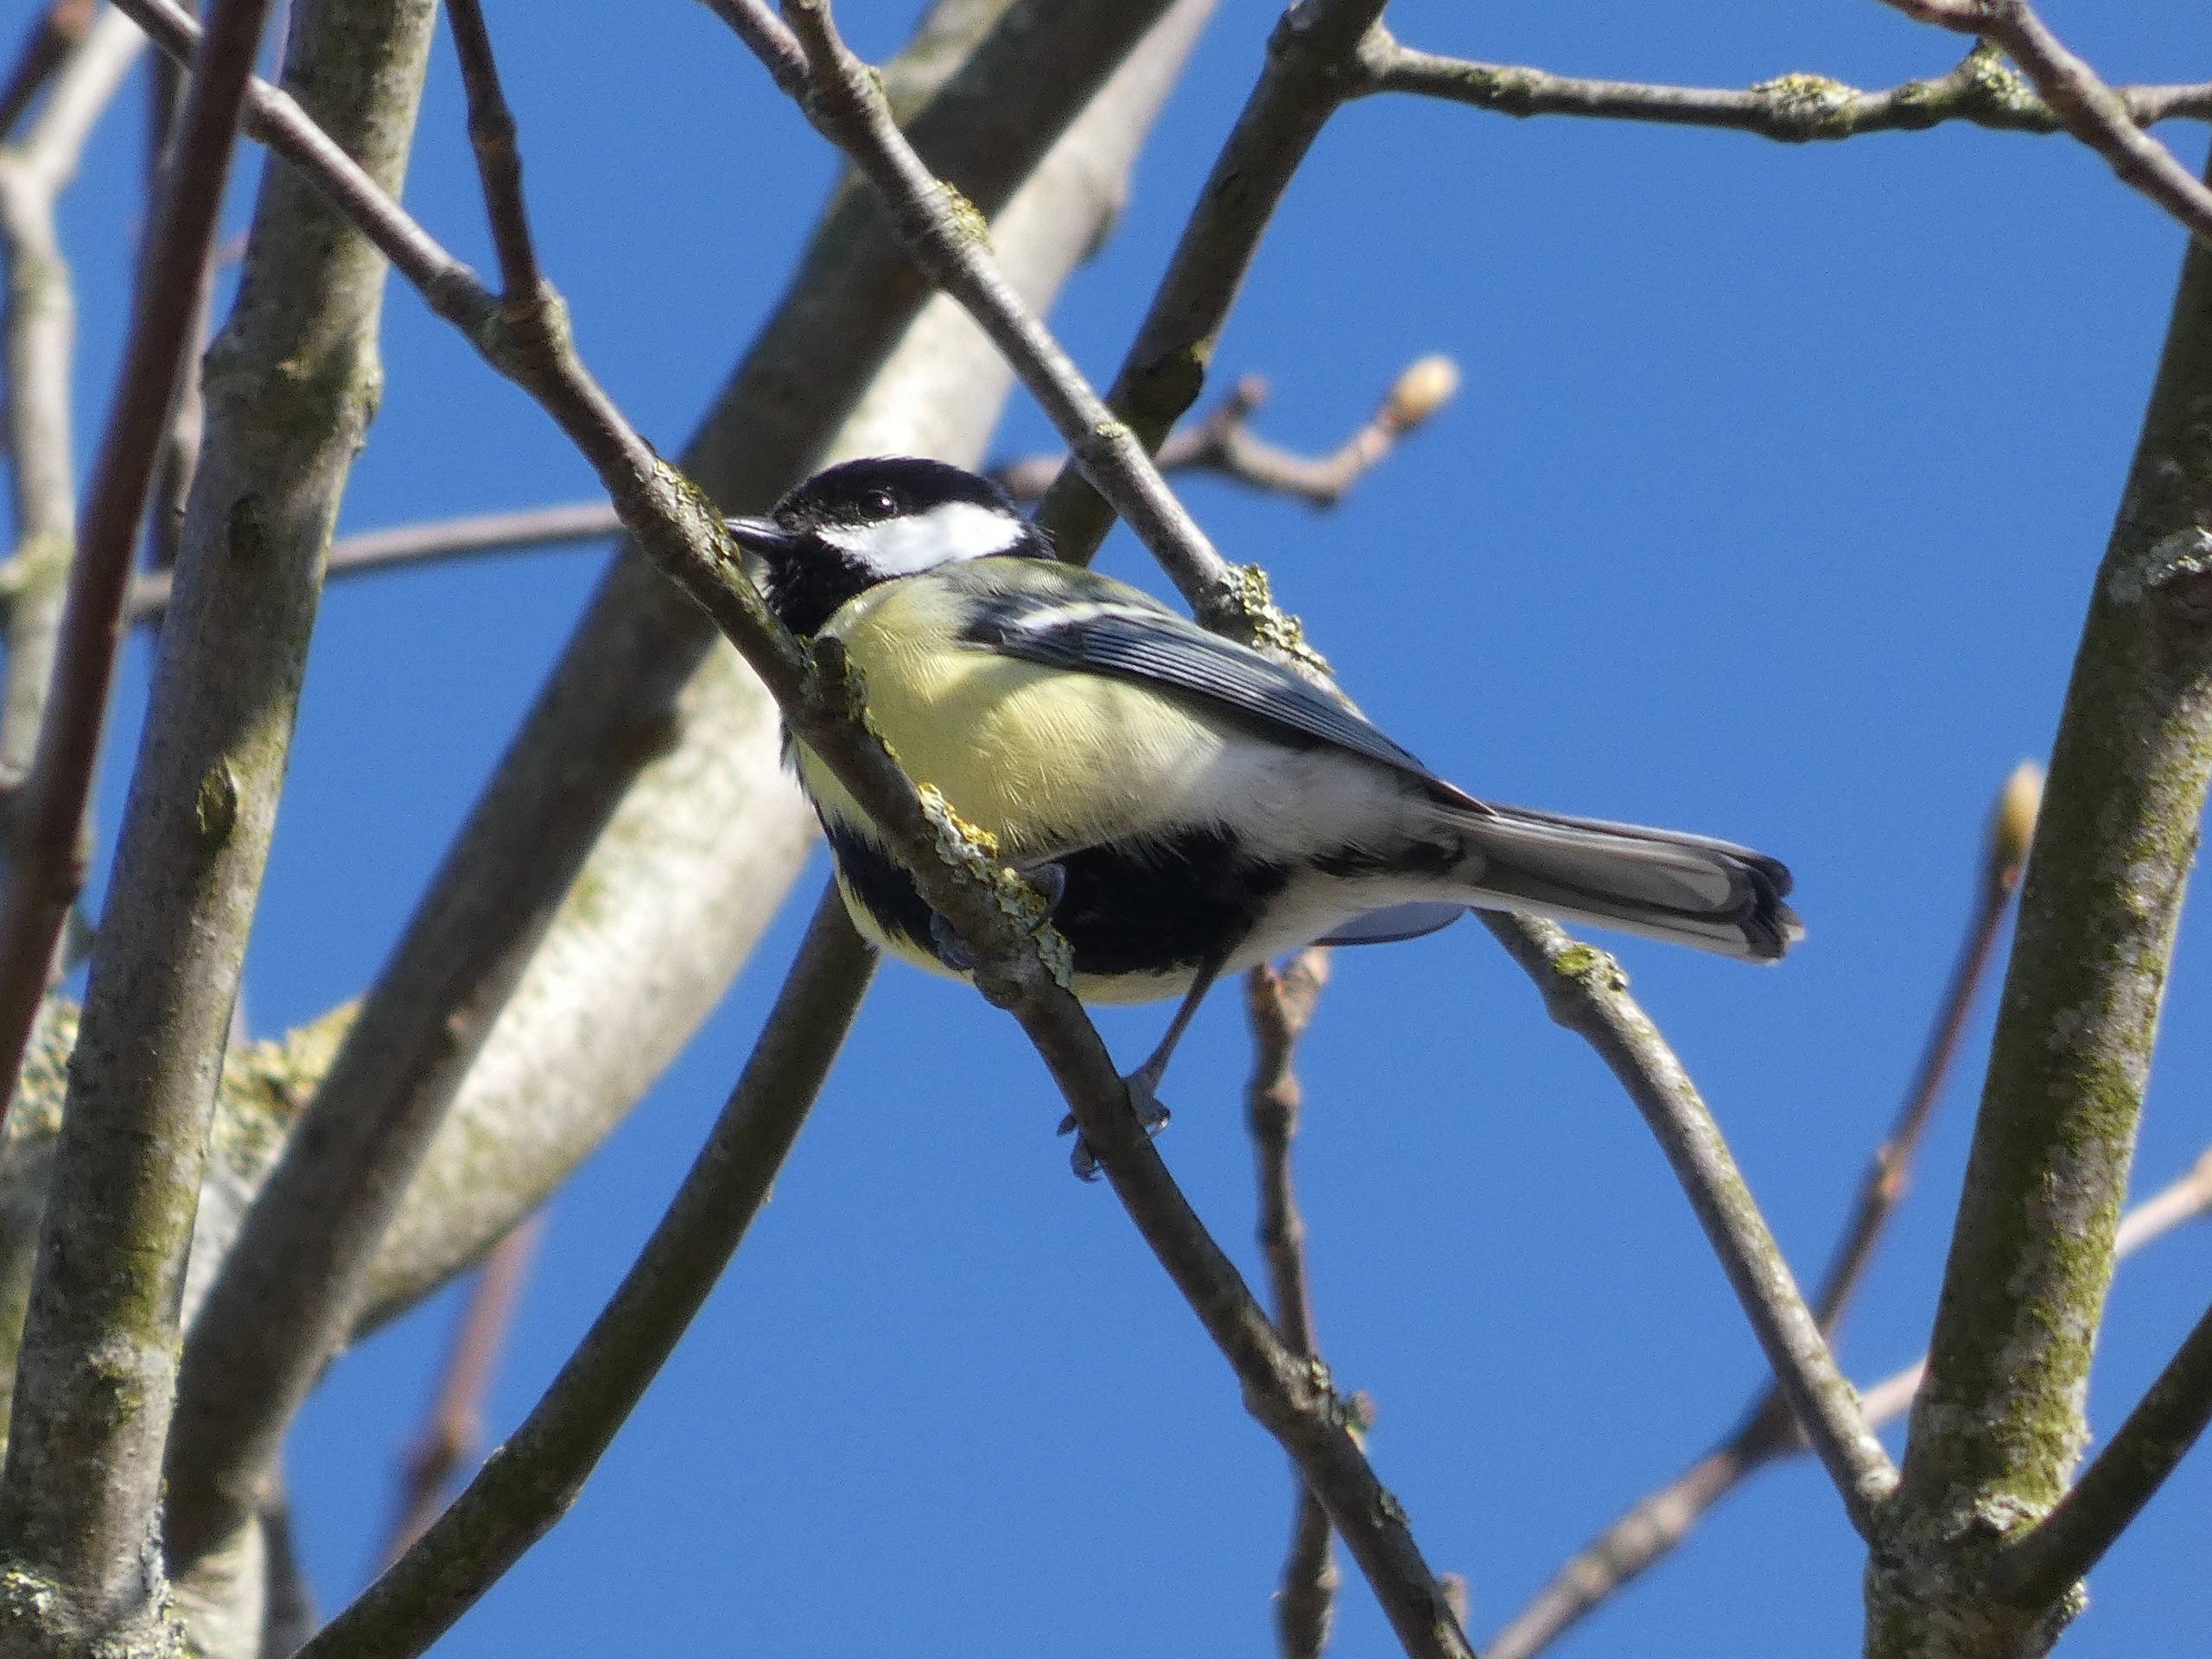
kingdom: Animalia
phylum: Chordata
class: Aves
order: Passeriformes
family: Paridae
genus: Parus
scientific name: Parus major
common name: Musvit
